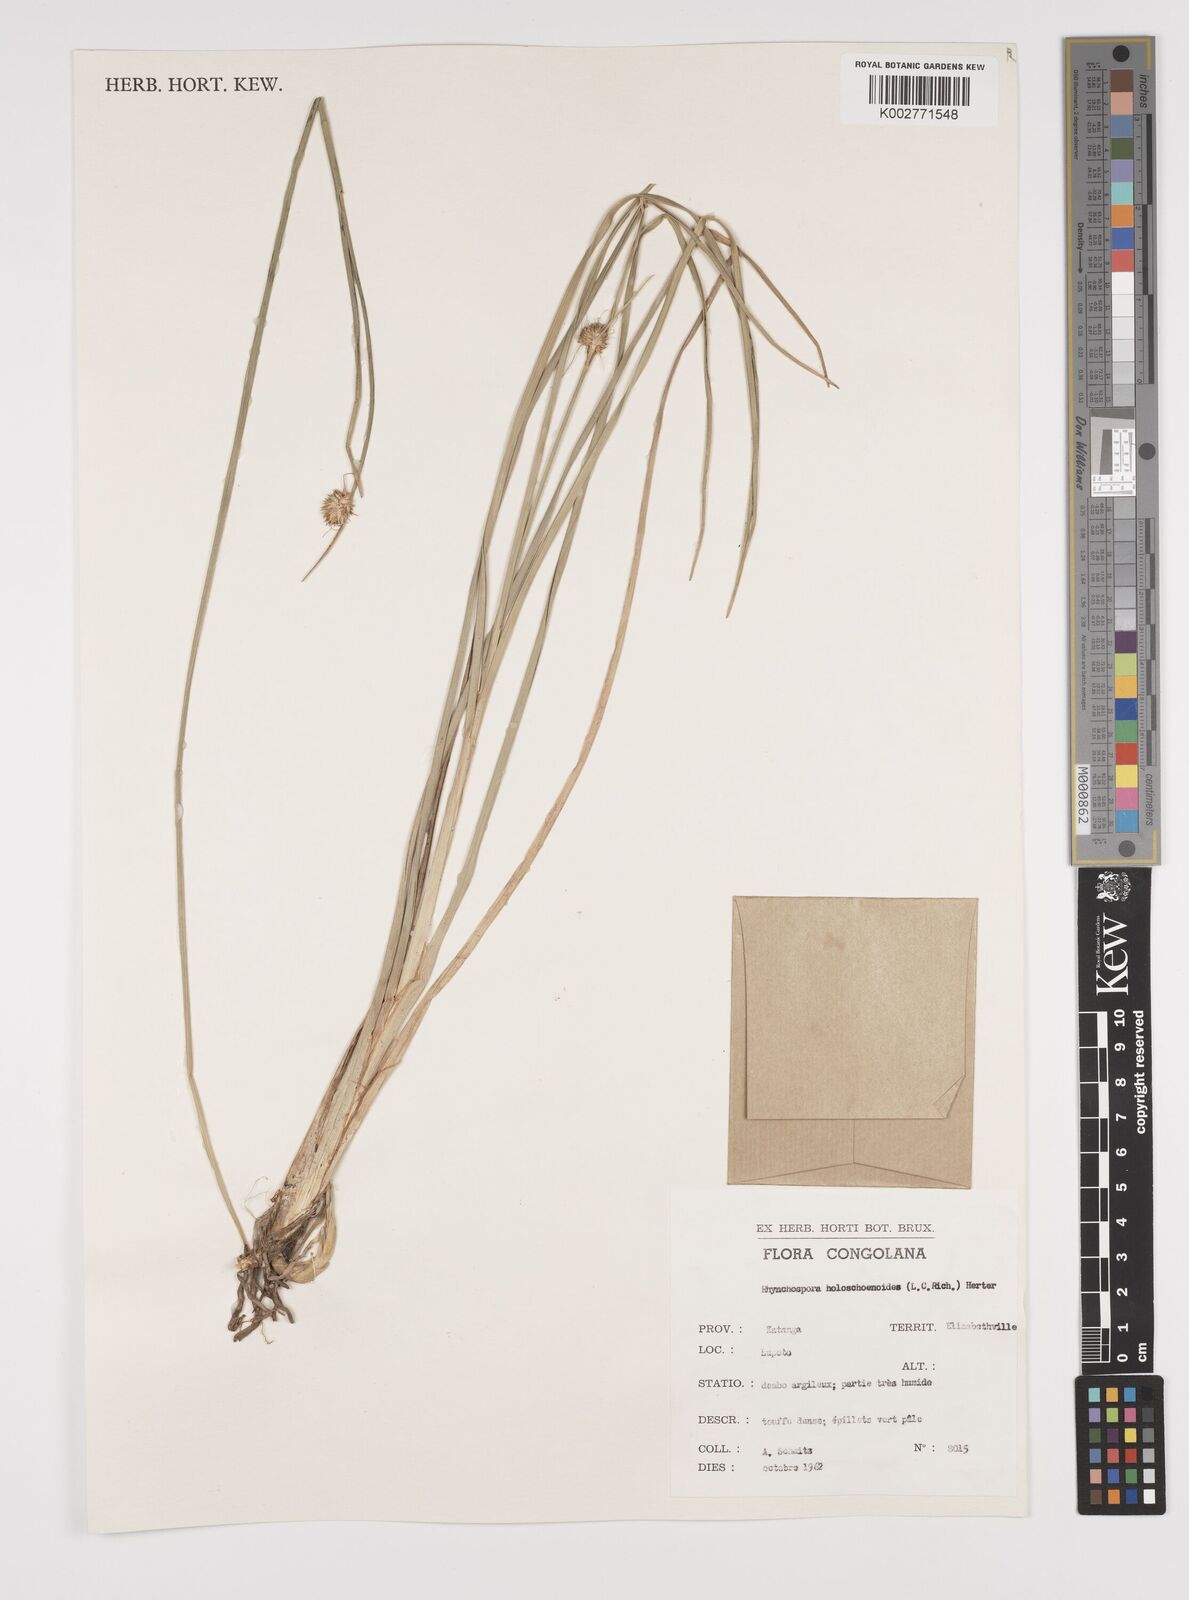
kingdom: Plantae
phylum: Tracheophyta
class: Liliopsida
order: Poales
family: Cyperaceae
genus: Rhynchospora
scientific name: Rhynchospora holoschoenoides
